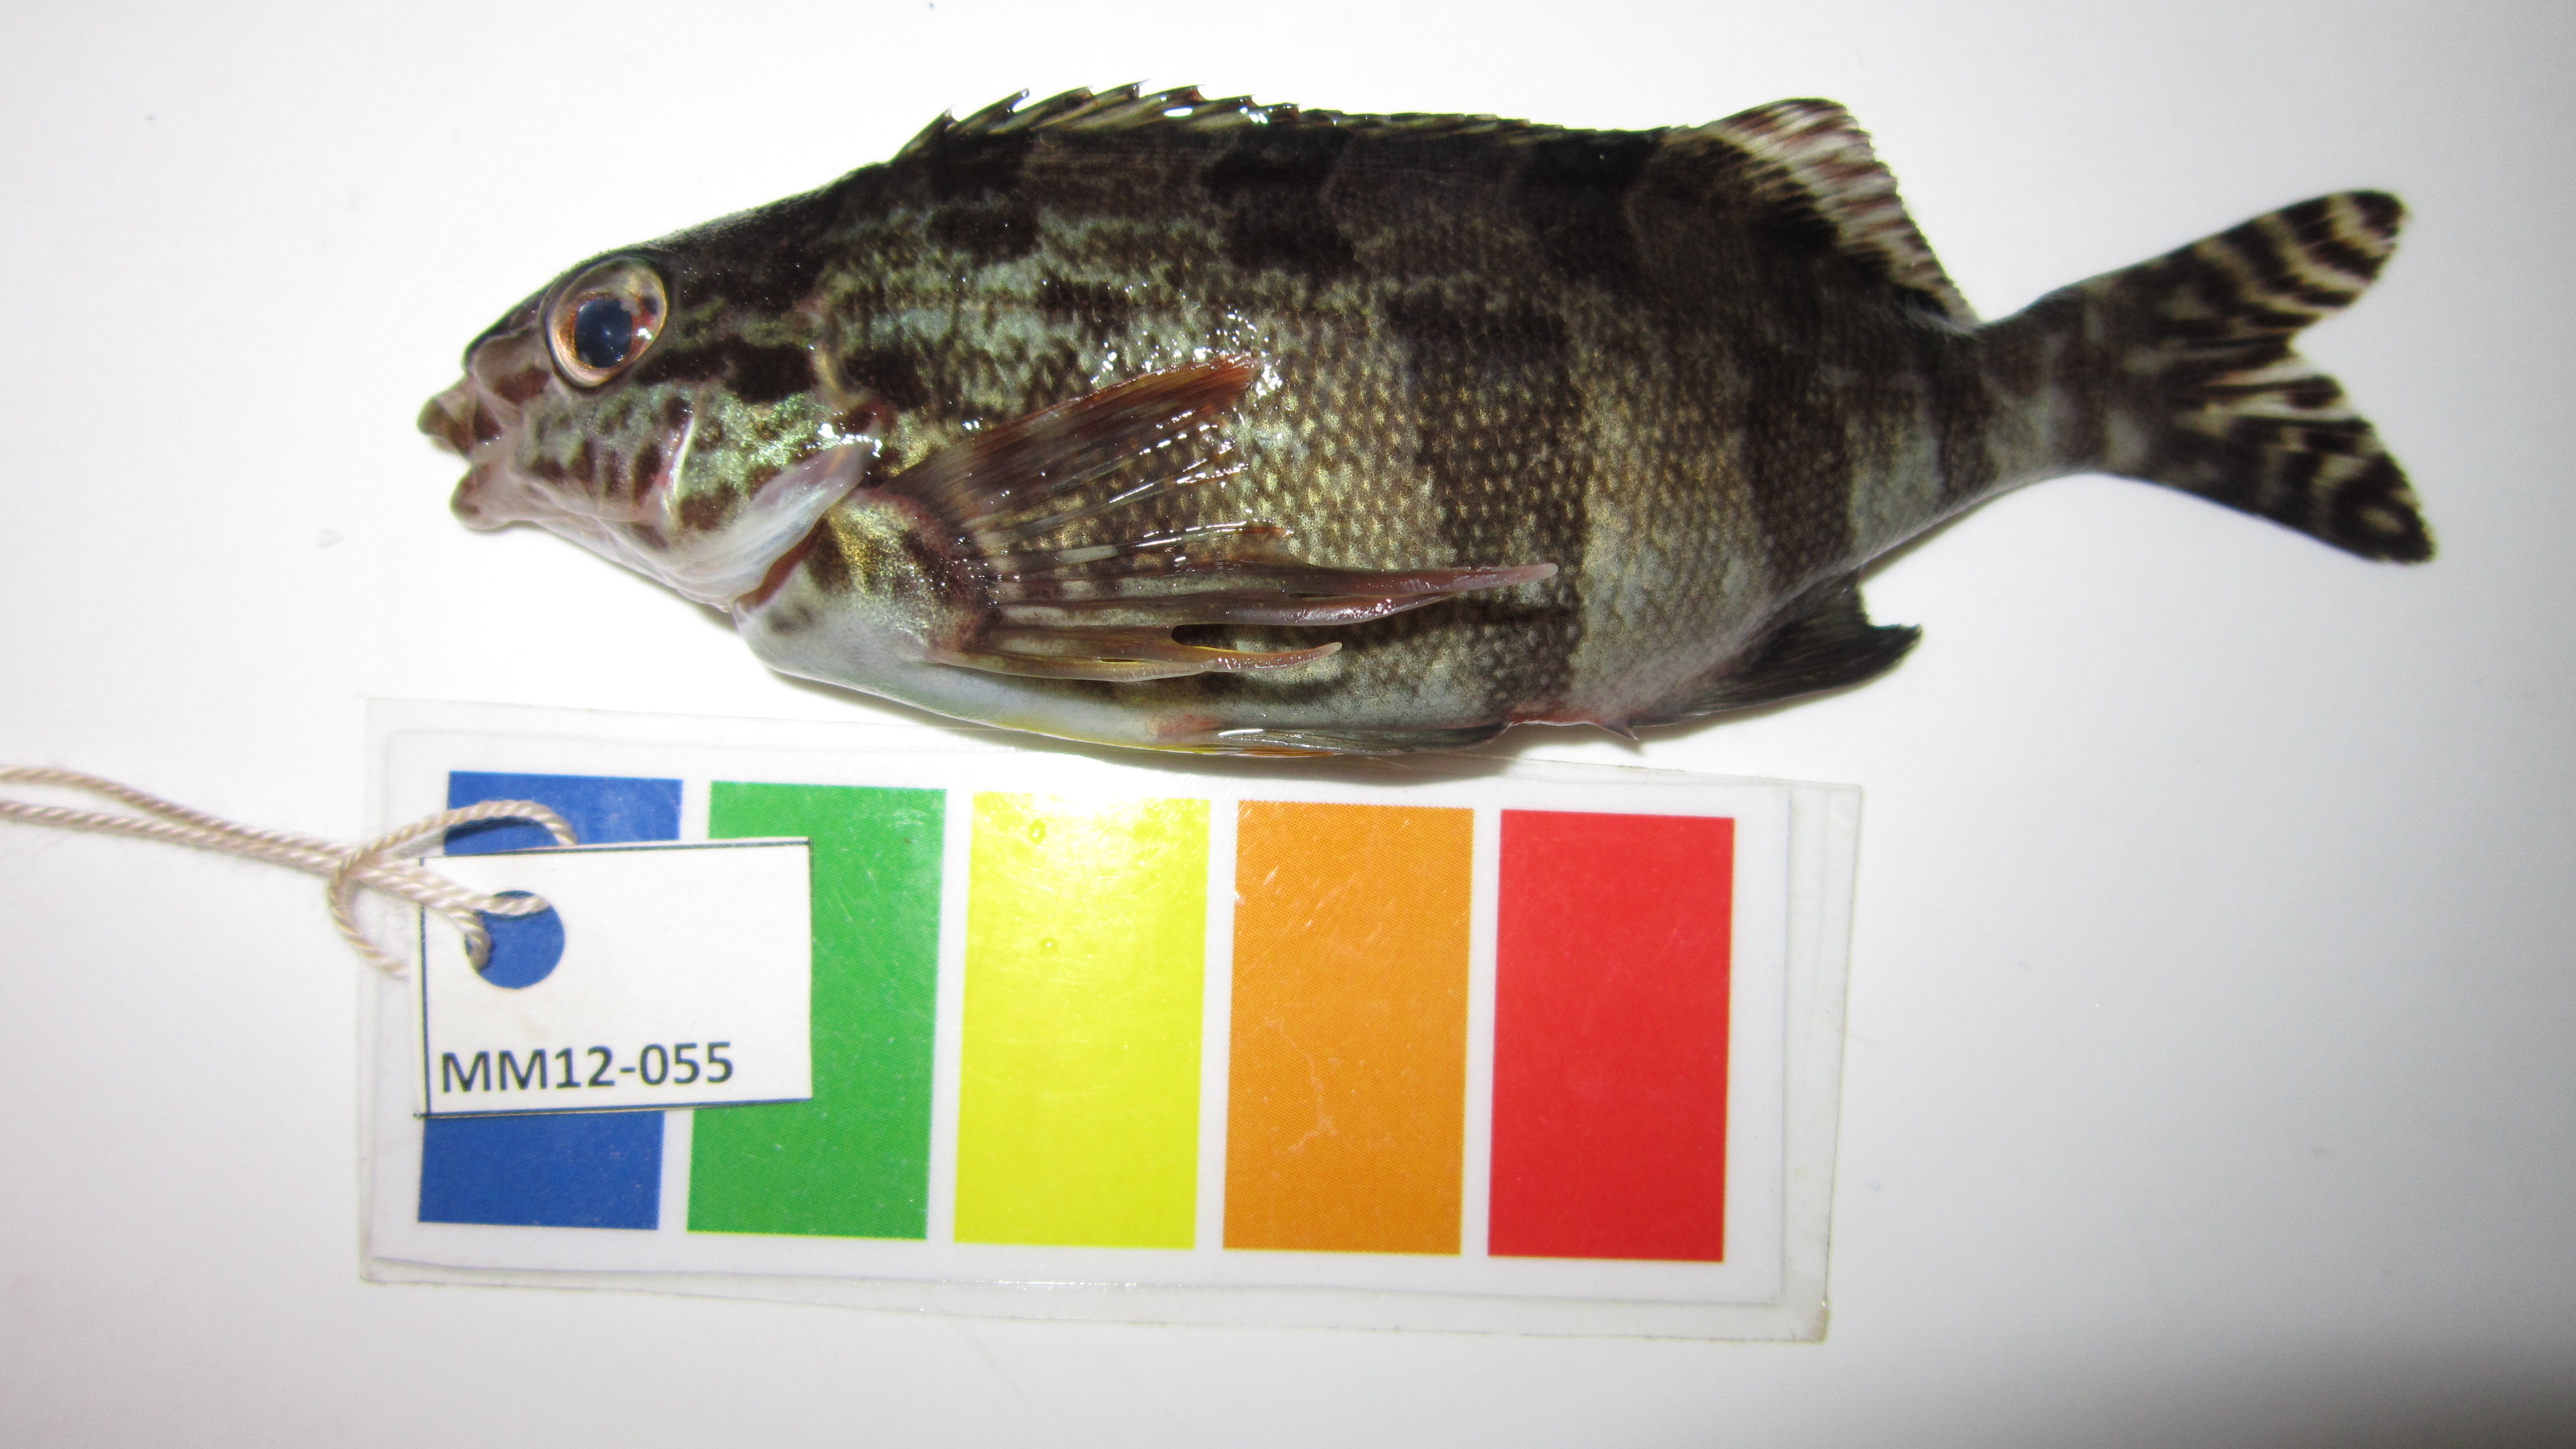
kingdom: Animalia
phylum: Chordata
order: Perciformes
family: Cheilodactylidae
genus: Cheilodactylus
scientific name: Cheilodactylus fasciatus
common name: Redfingers
